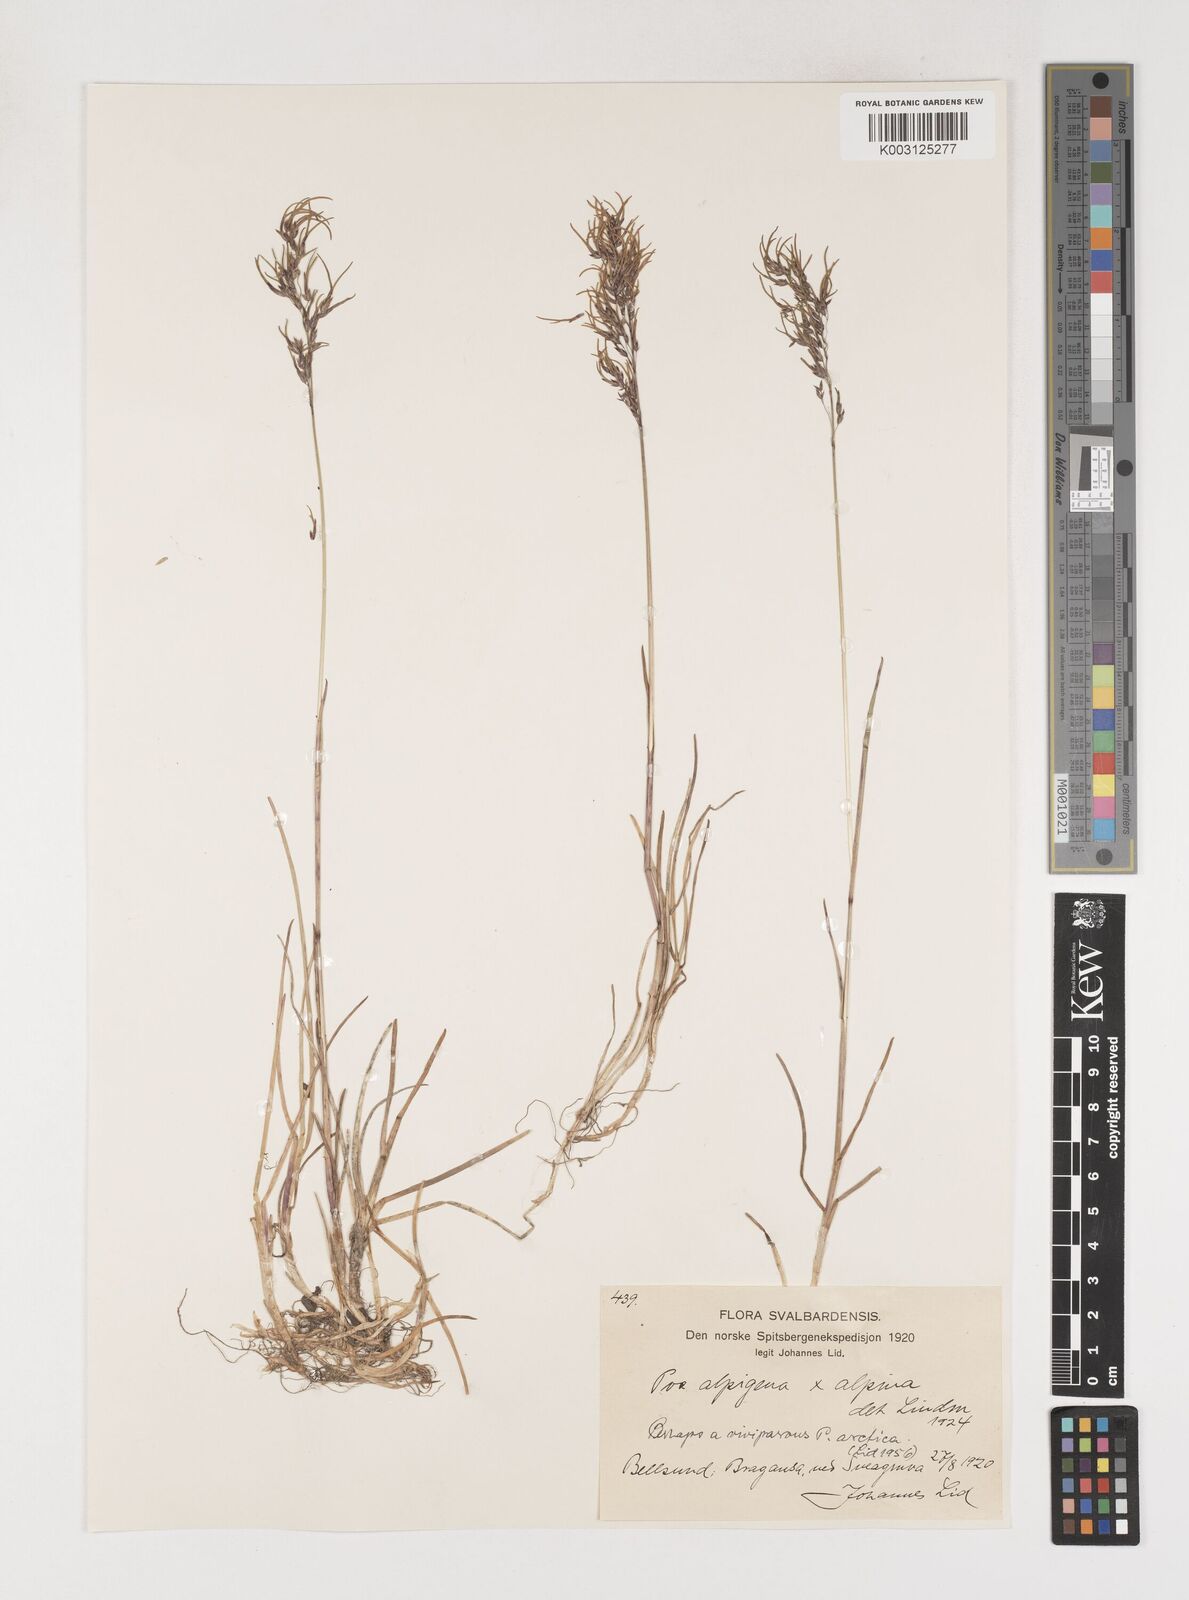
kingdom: Plantae
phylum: Tracheophyta
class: Liliopsida
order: Poales
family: Poaceae
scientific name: Poaceae
